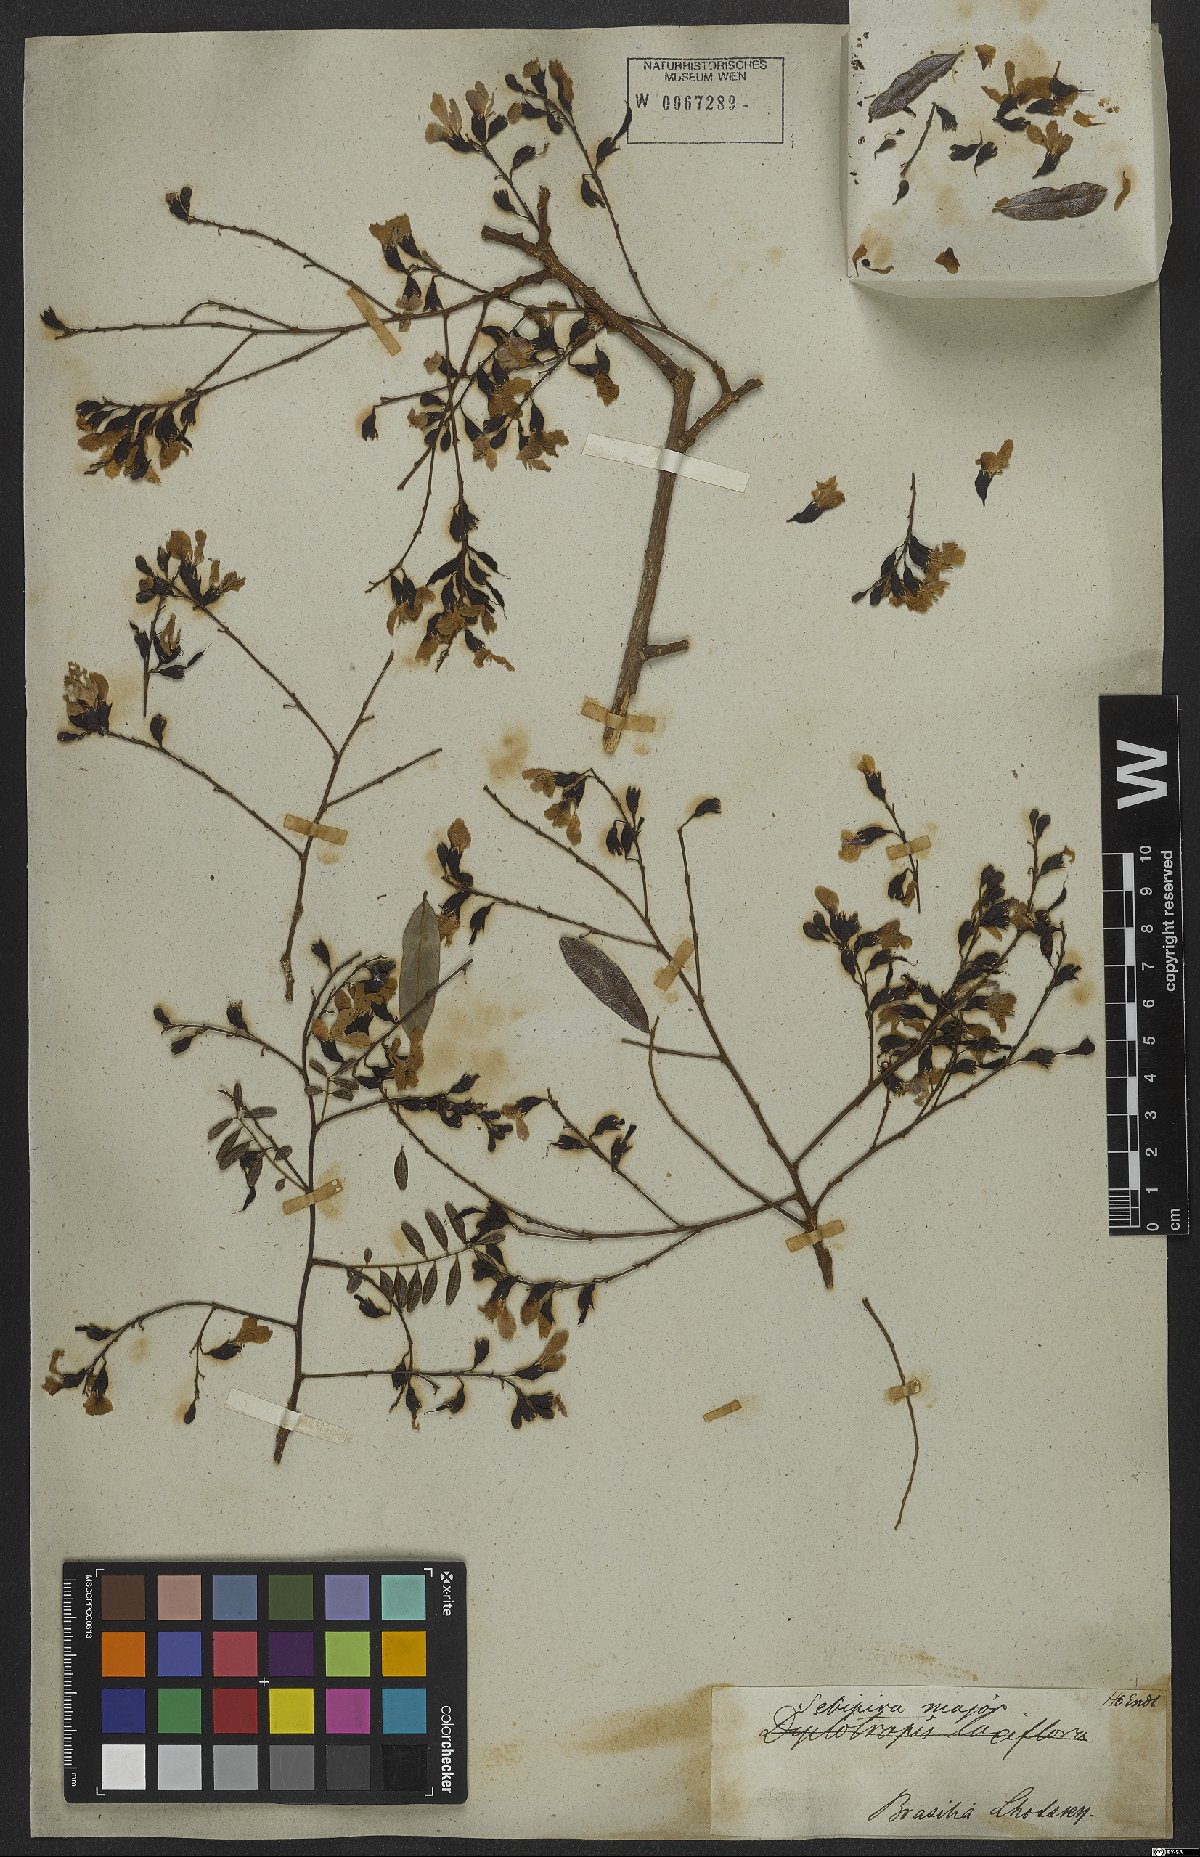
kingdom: Plantae
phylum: Tracheophyta
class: Magnoliopsida
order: Fabales
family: Fabaceae
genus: Bowdichia
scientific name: Bowdichia virgilioides
